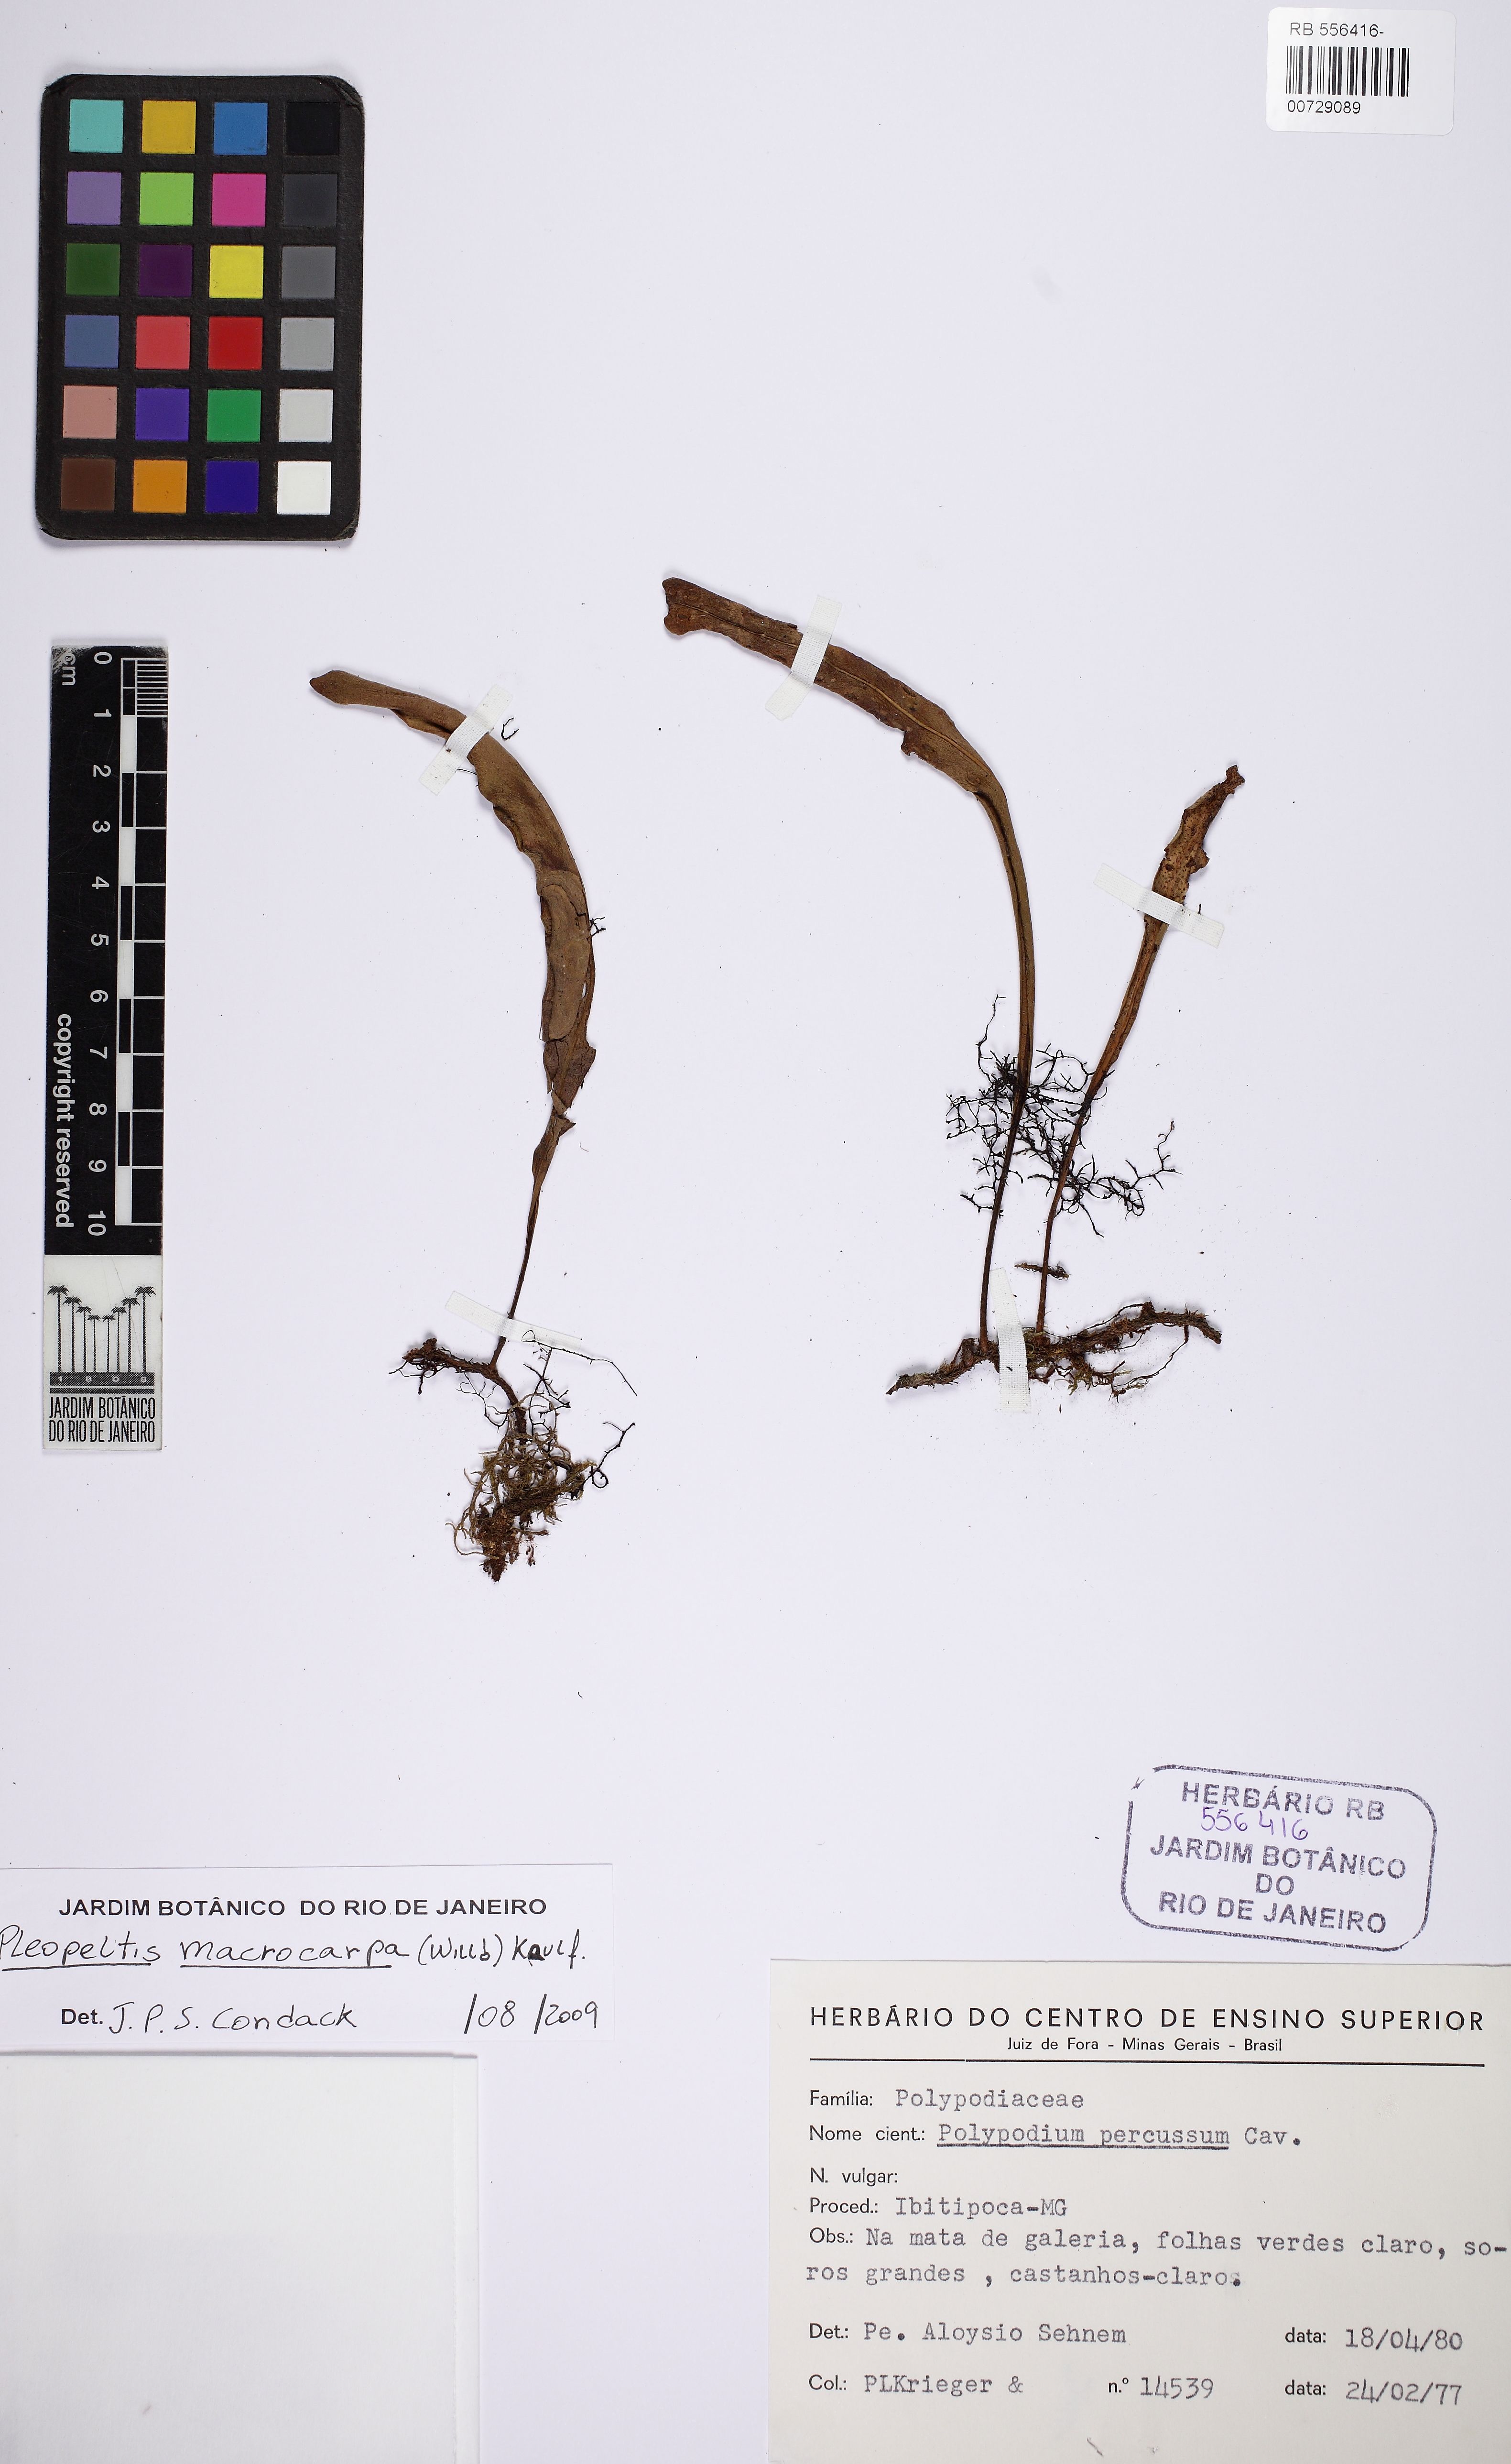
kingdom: Plantae
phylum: Tracheophyta
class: Polypodiopsida
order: Polypodiales
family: Polypodiaceae
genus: Pleopeltis
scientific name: Pleopeltis macrocarpa
